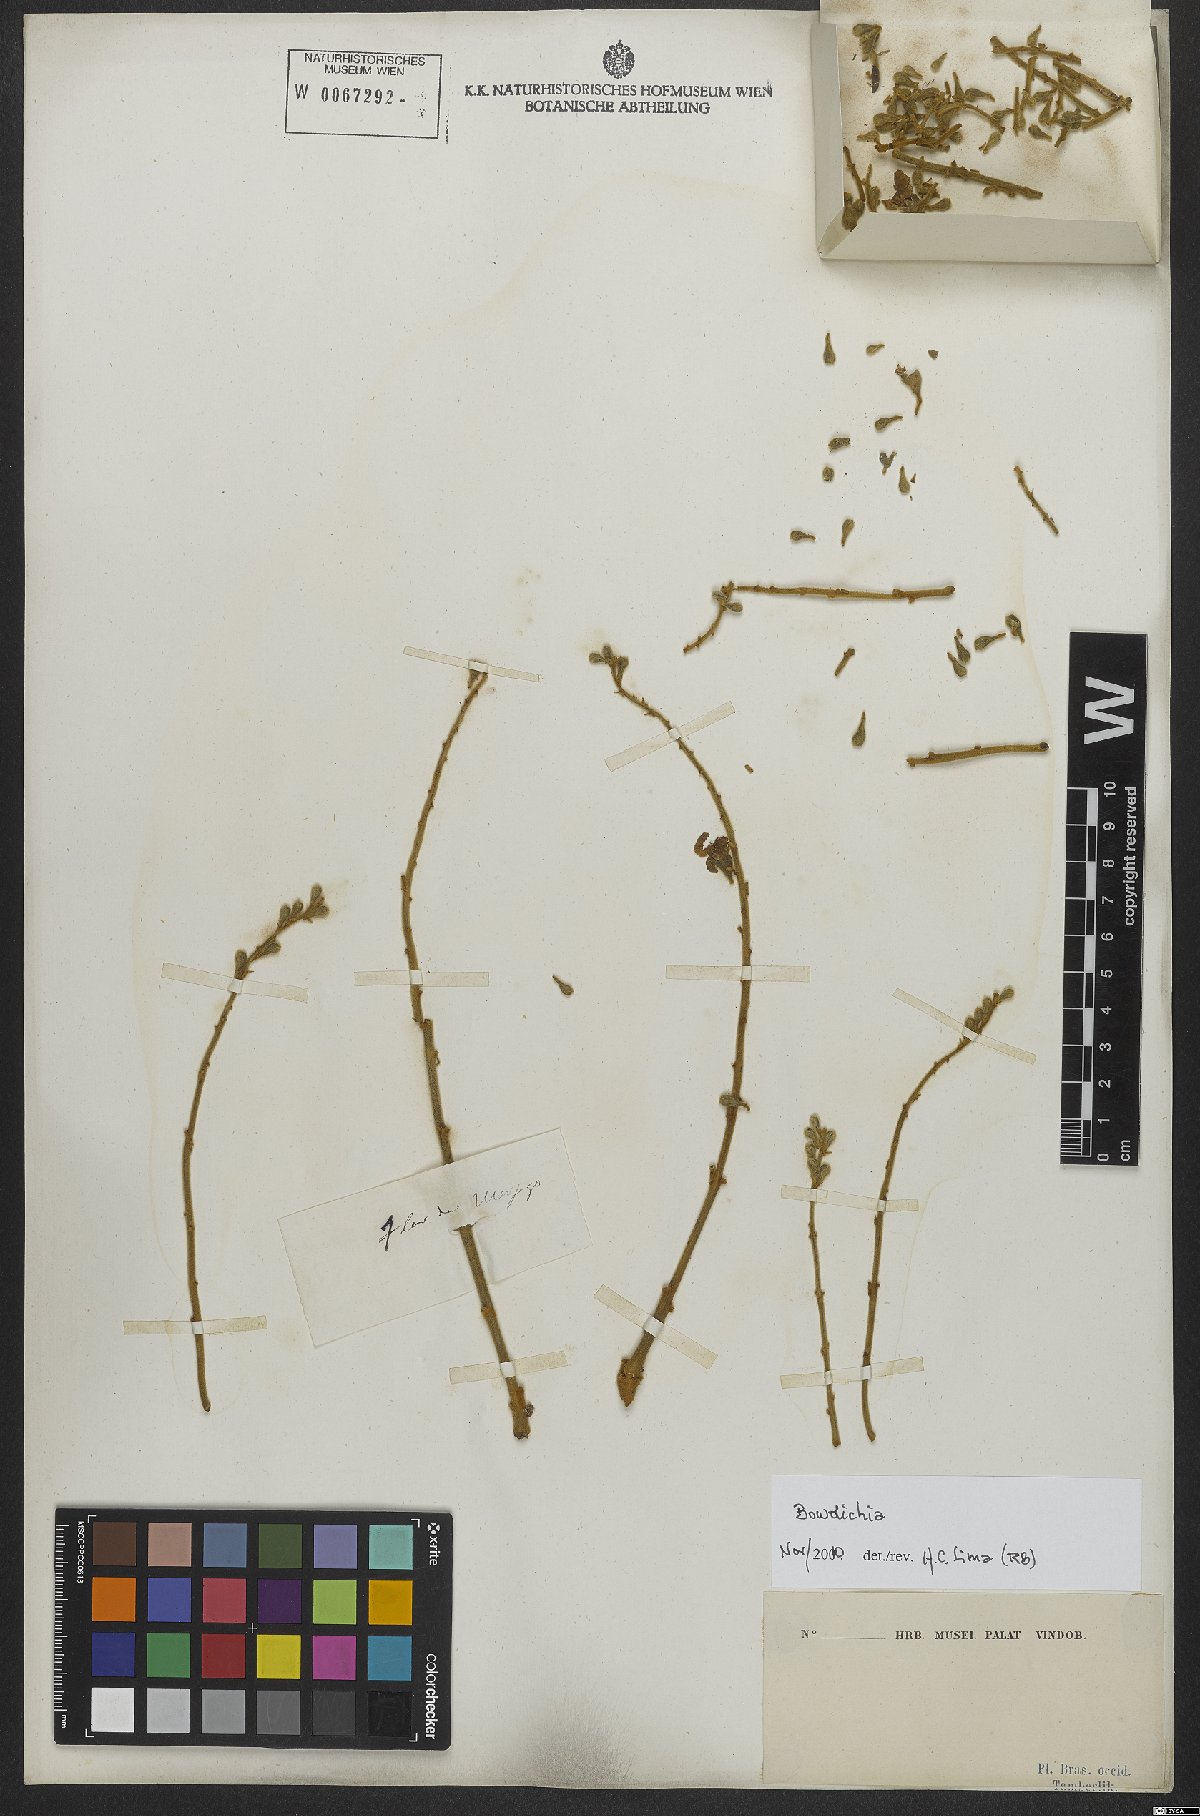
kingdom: Plantae
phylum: Tracheophyta
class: Magnoliopsida
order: Fabales
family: Fabaceae
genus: Bowdichia
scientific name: Bowdichia
